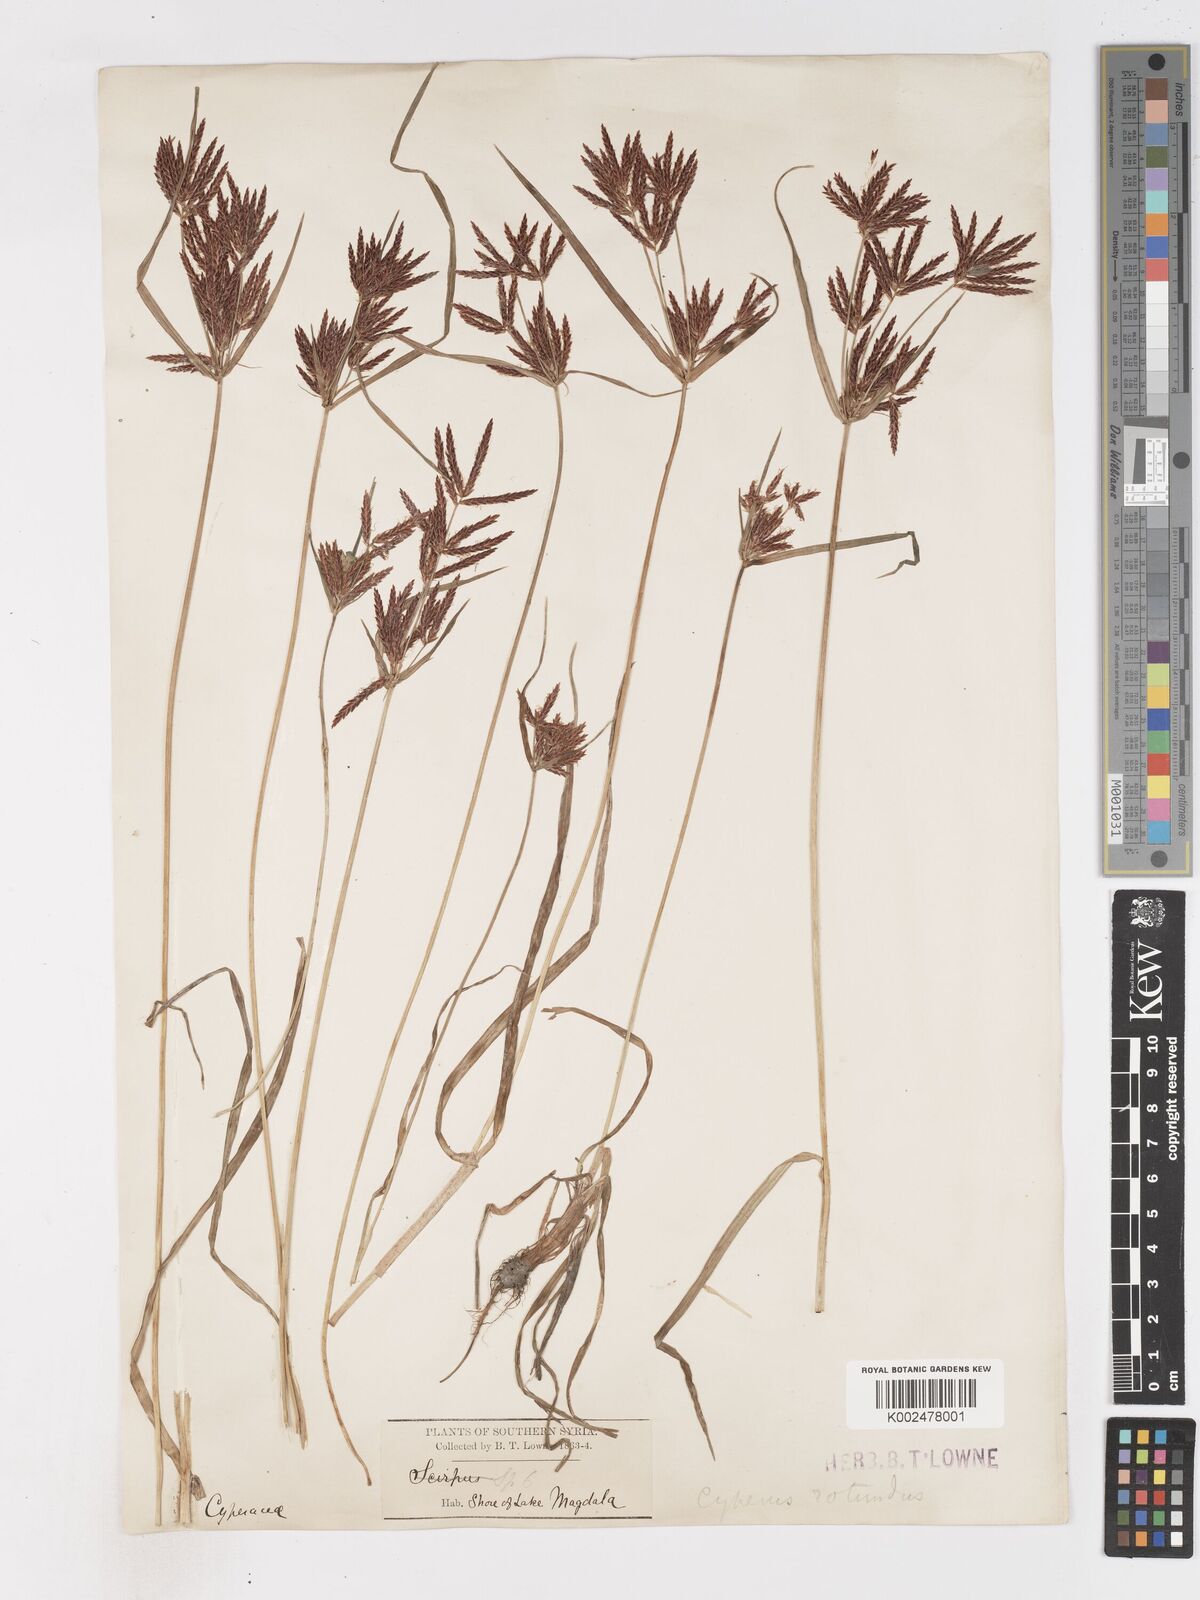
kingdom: Plantae
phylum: Tracheophyta
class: Liliopsida
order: Poales
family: Cyperaceae
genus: Cyperus
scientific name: Cyperus rotundus
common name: Nutgrass
